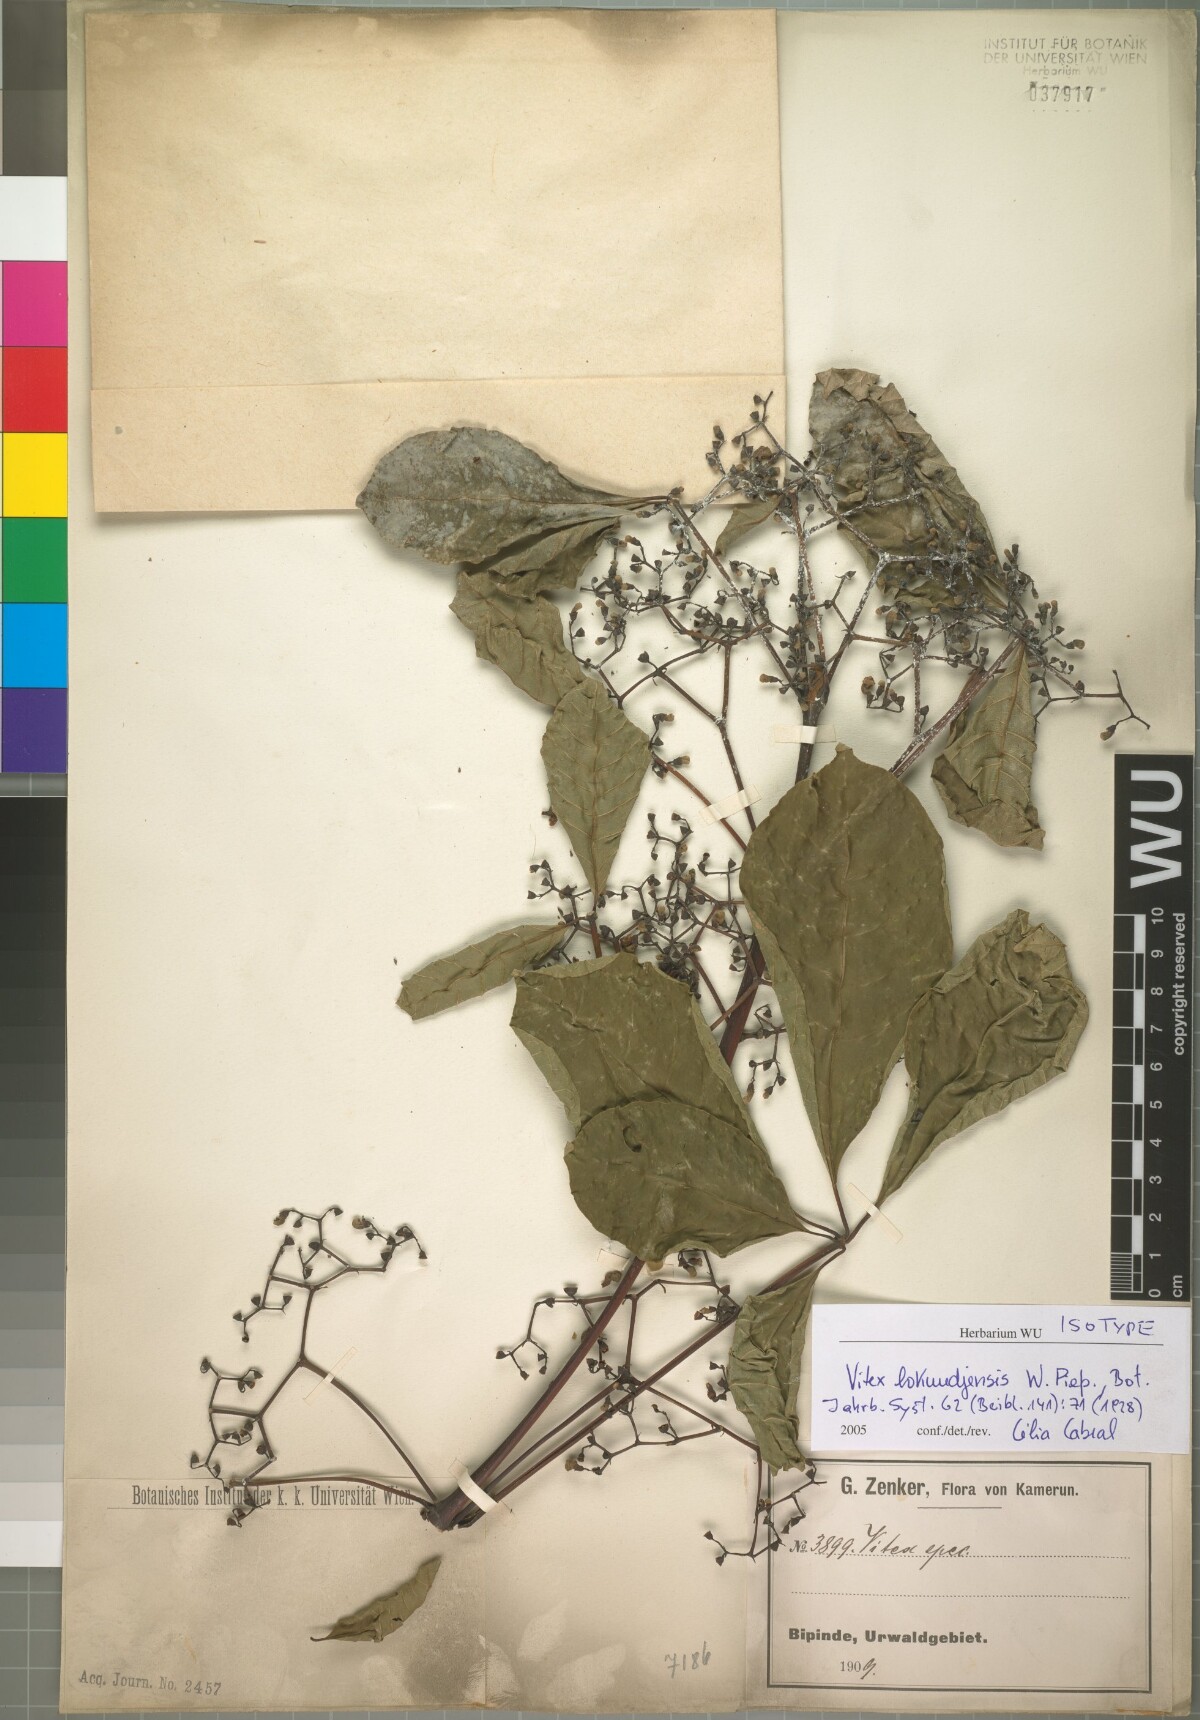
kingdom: Plantae
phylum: Tracheophyta
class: Magnoliopsida
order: Lamiales
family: Lamiaceae
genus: Vitex
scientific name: Vitex lokundjensis
